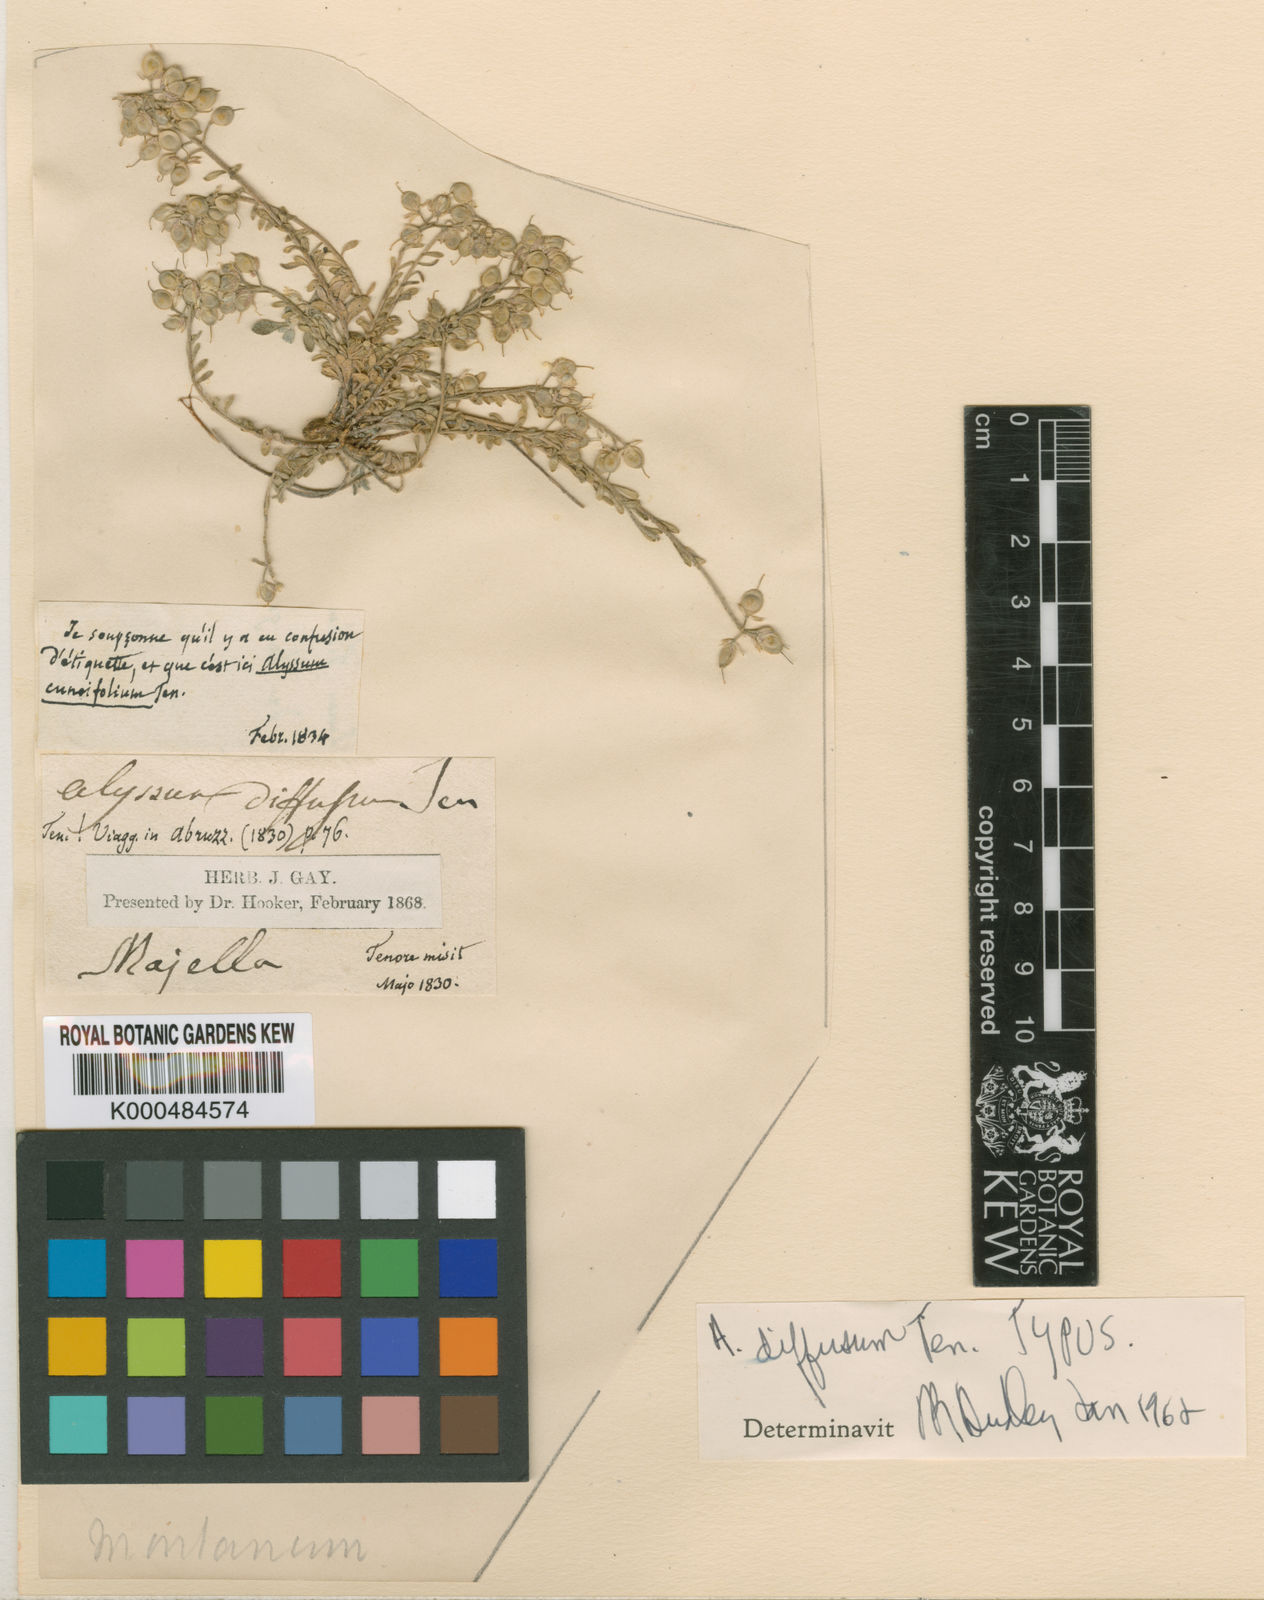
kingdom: Plantae
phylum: Tracheophyta
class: Magnoliopsida
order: Brassicales
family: Brassicaceae
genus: Alyssum
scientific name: Alyssum montanum
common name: Mountain alison
